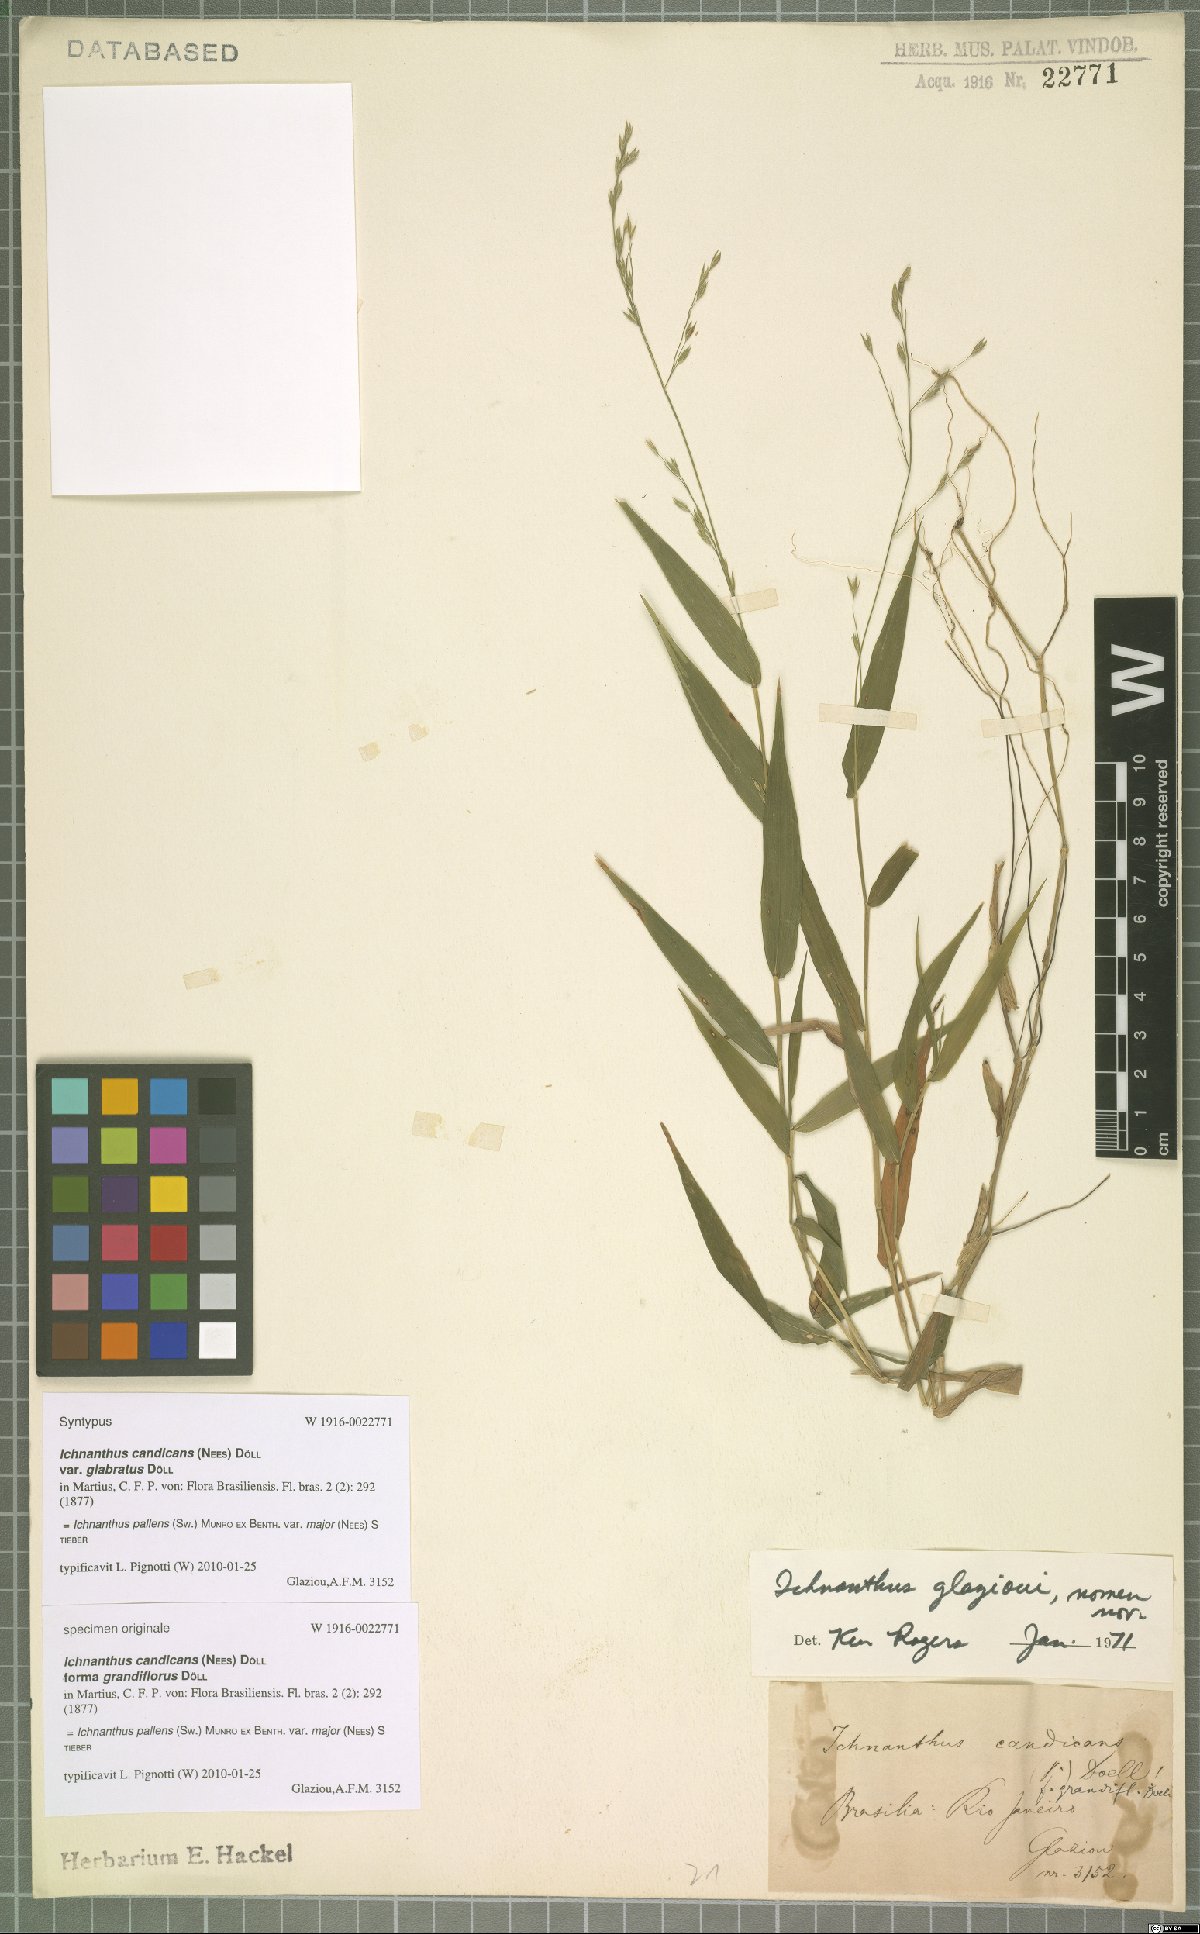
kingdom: Plantae
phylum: Tracheophyta
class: Liliopsida
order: Poales
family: Poaceae
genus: Ichnanthus
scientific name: Ichnanthus pallens
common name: Water grass
